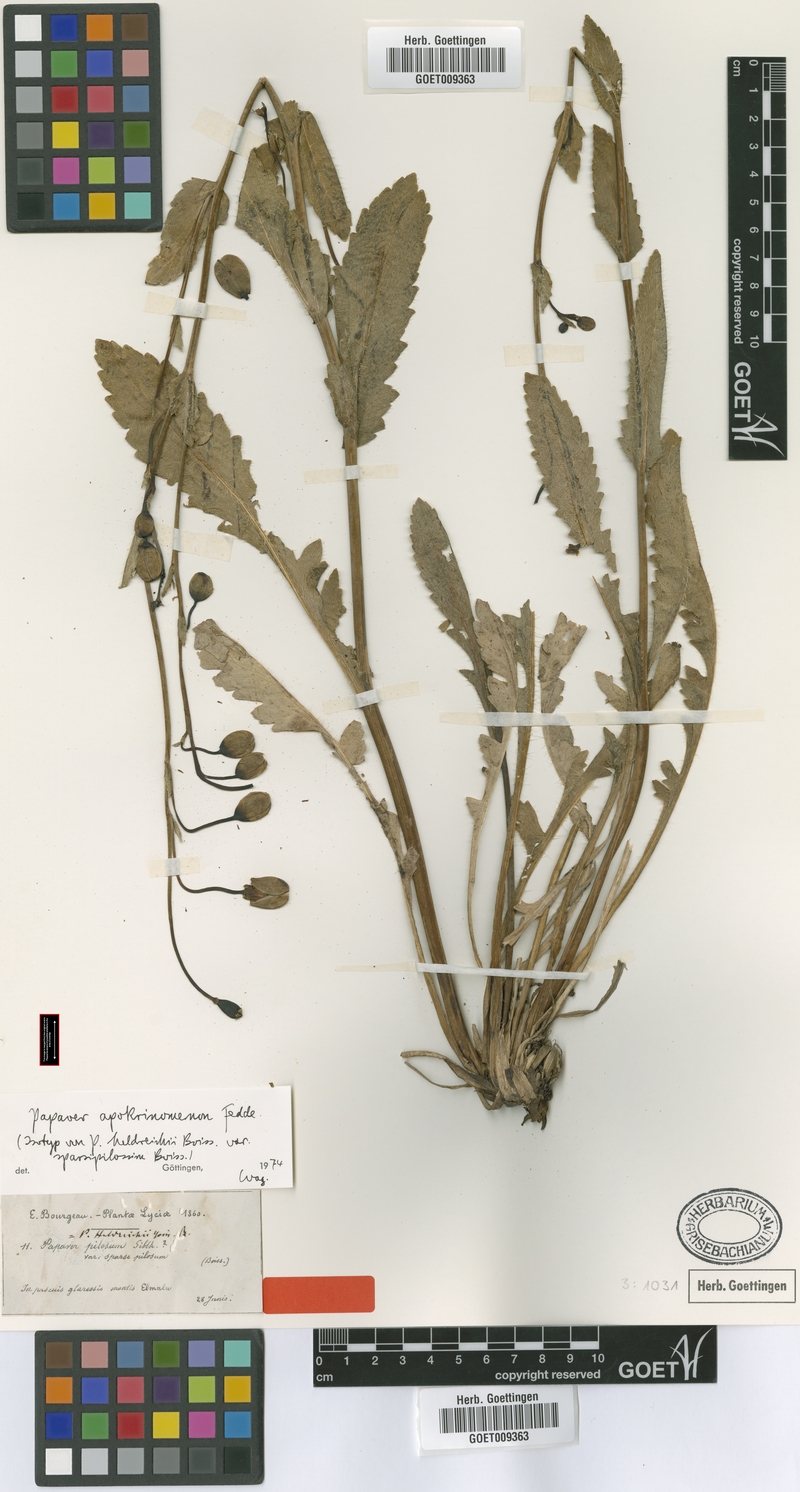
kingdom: Plantae
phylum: Tracheophyta
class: Magnoliopsida
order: Ranunculales
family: Papaveraceae
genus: Papaver
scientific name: Papaver pilosum
